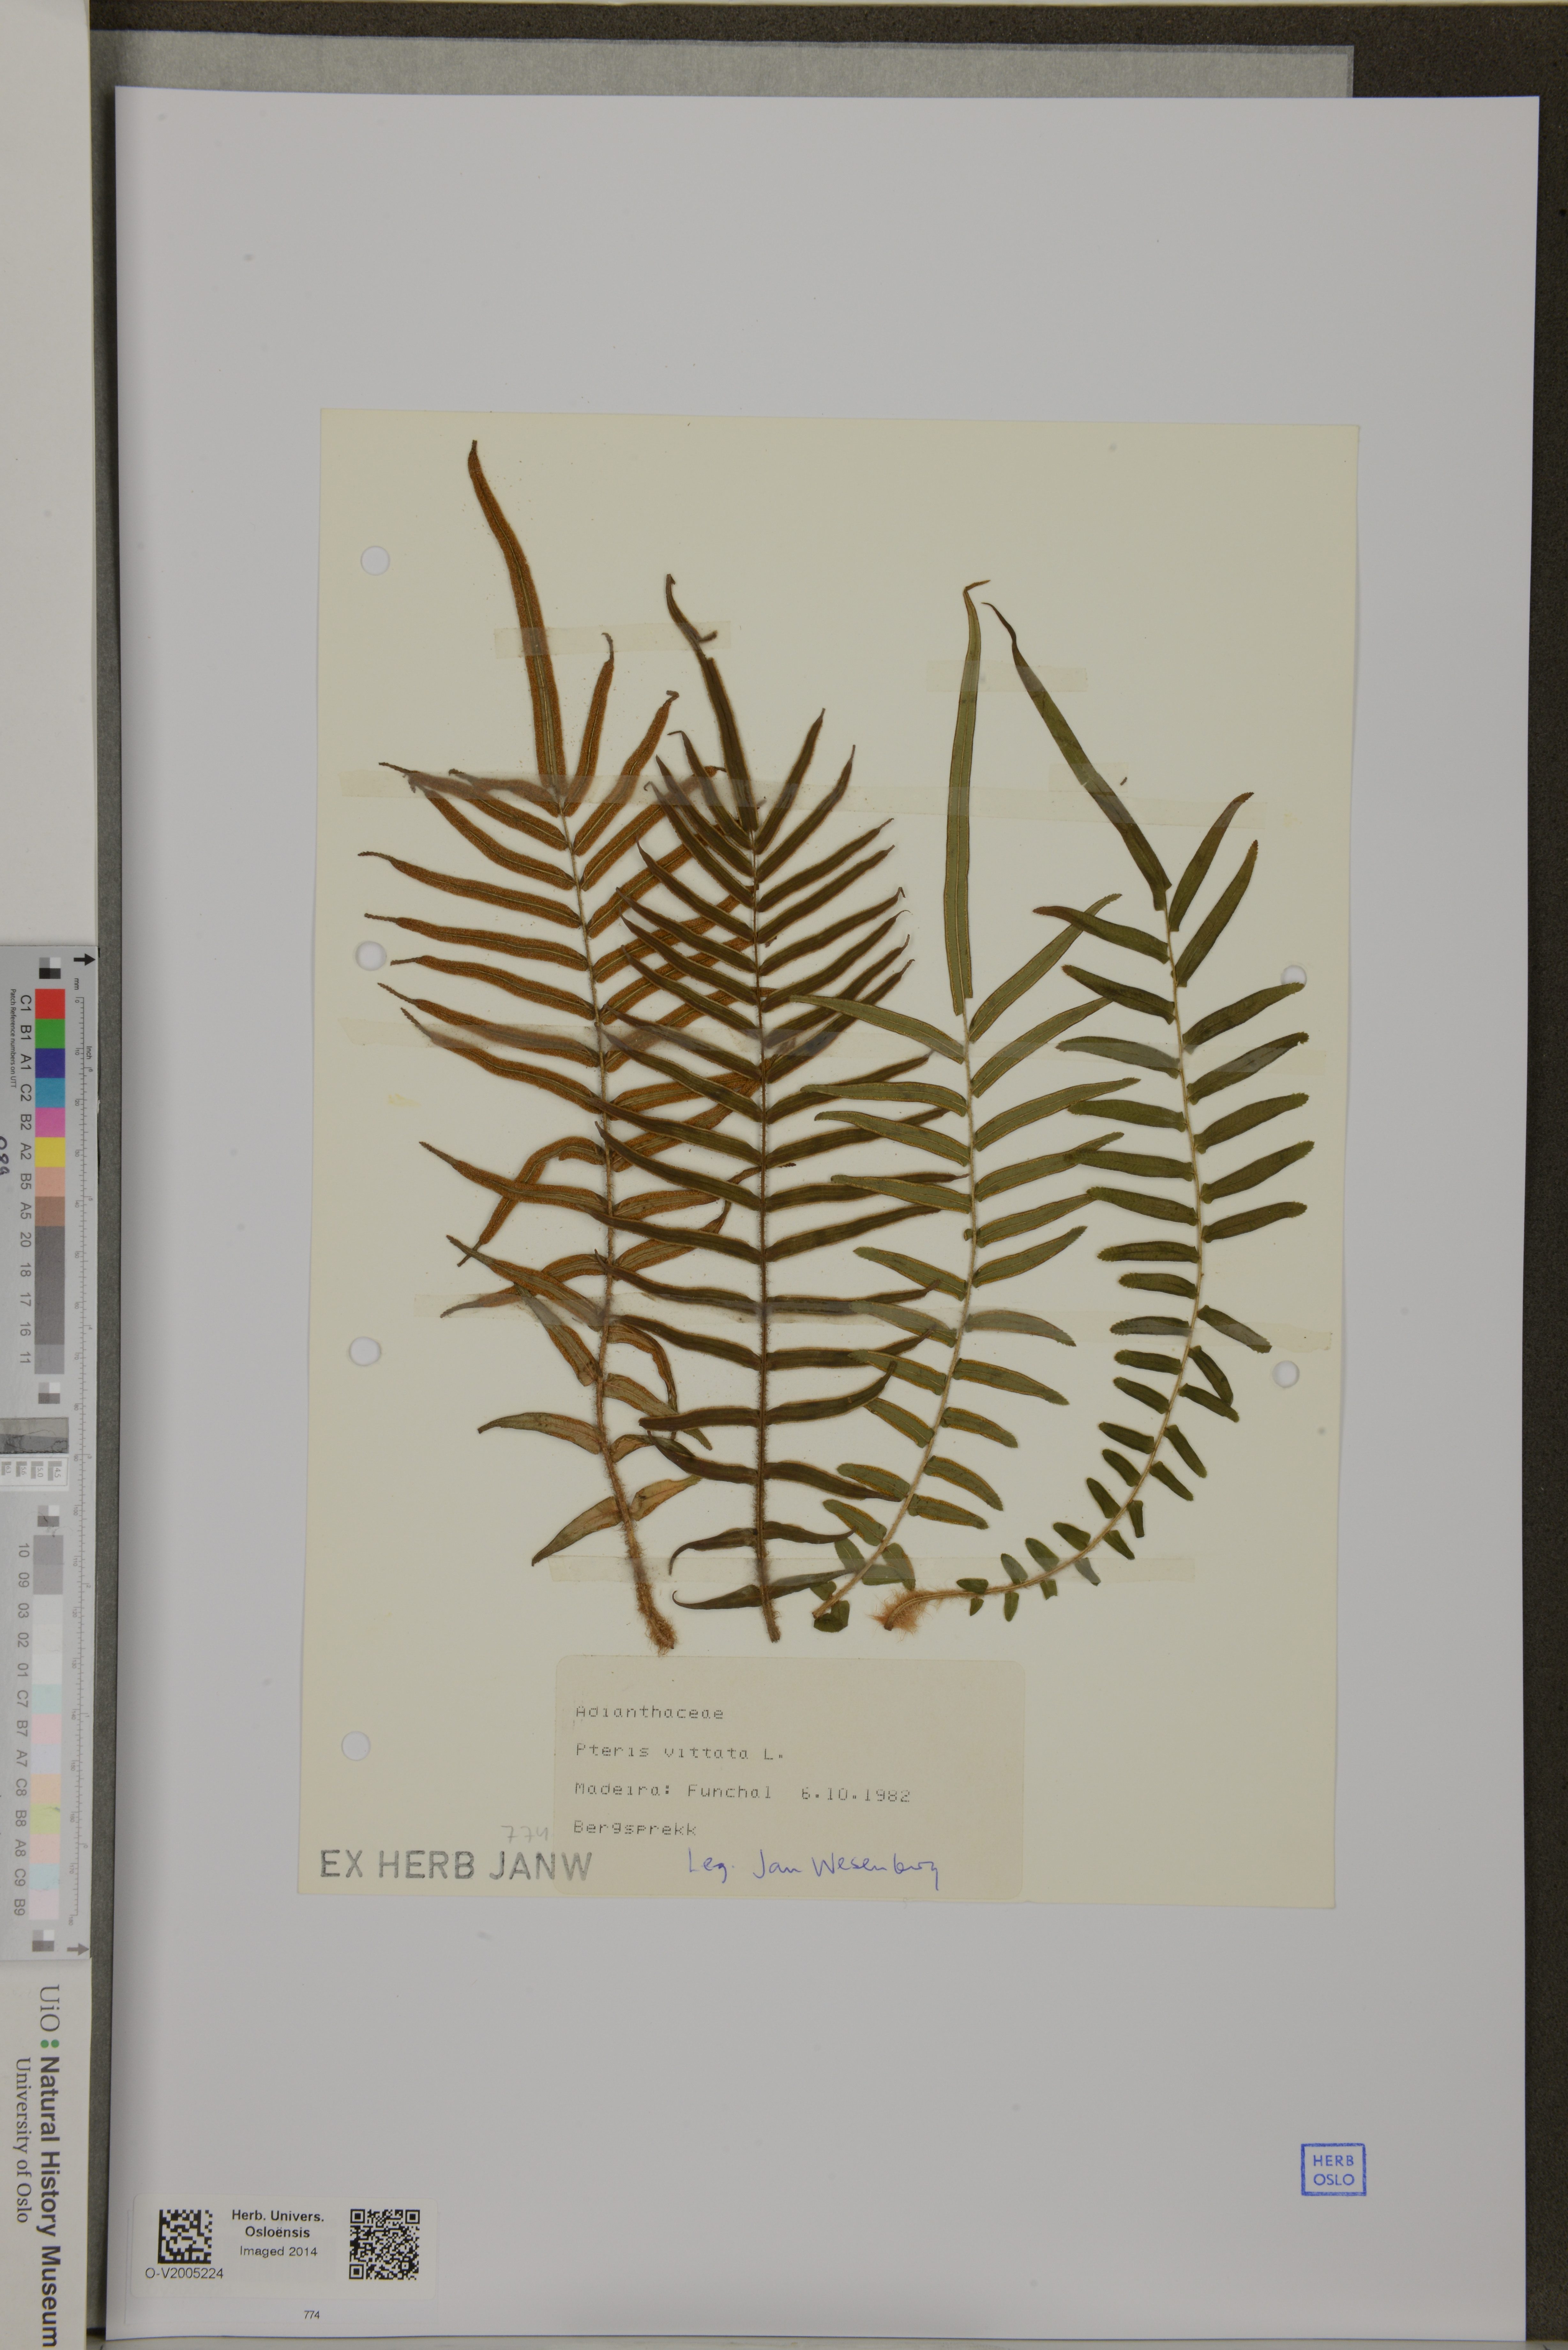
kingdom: Plantae
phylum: Tracheophyta
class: Polypodiopsida
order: Polypodiales
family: Pteridaceae
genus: Pteris
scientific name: Pteris vittata
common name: Ladder brake
